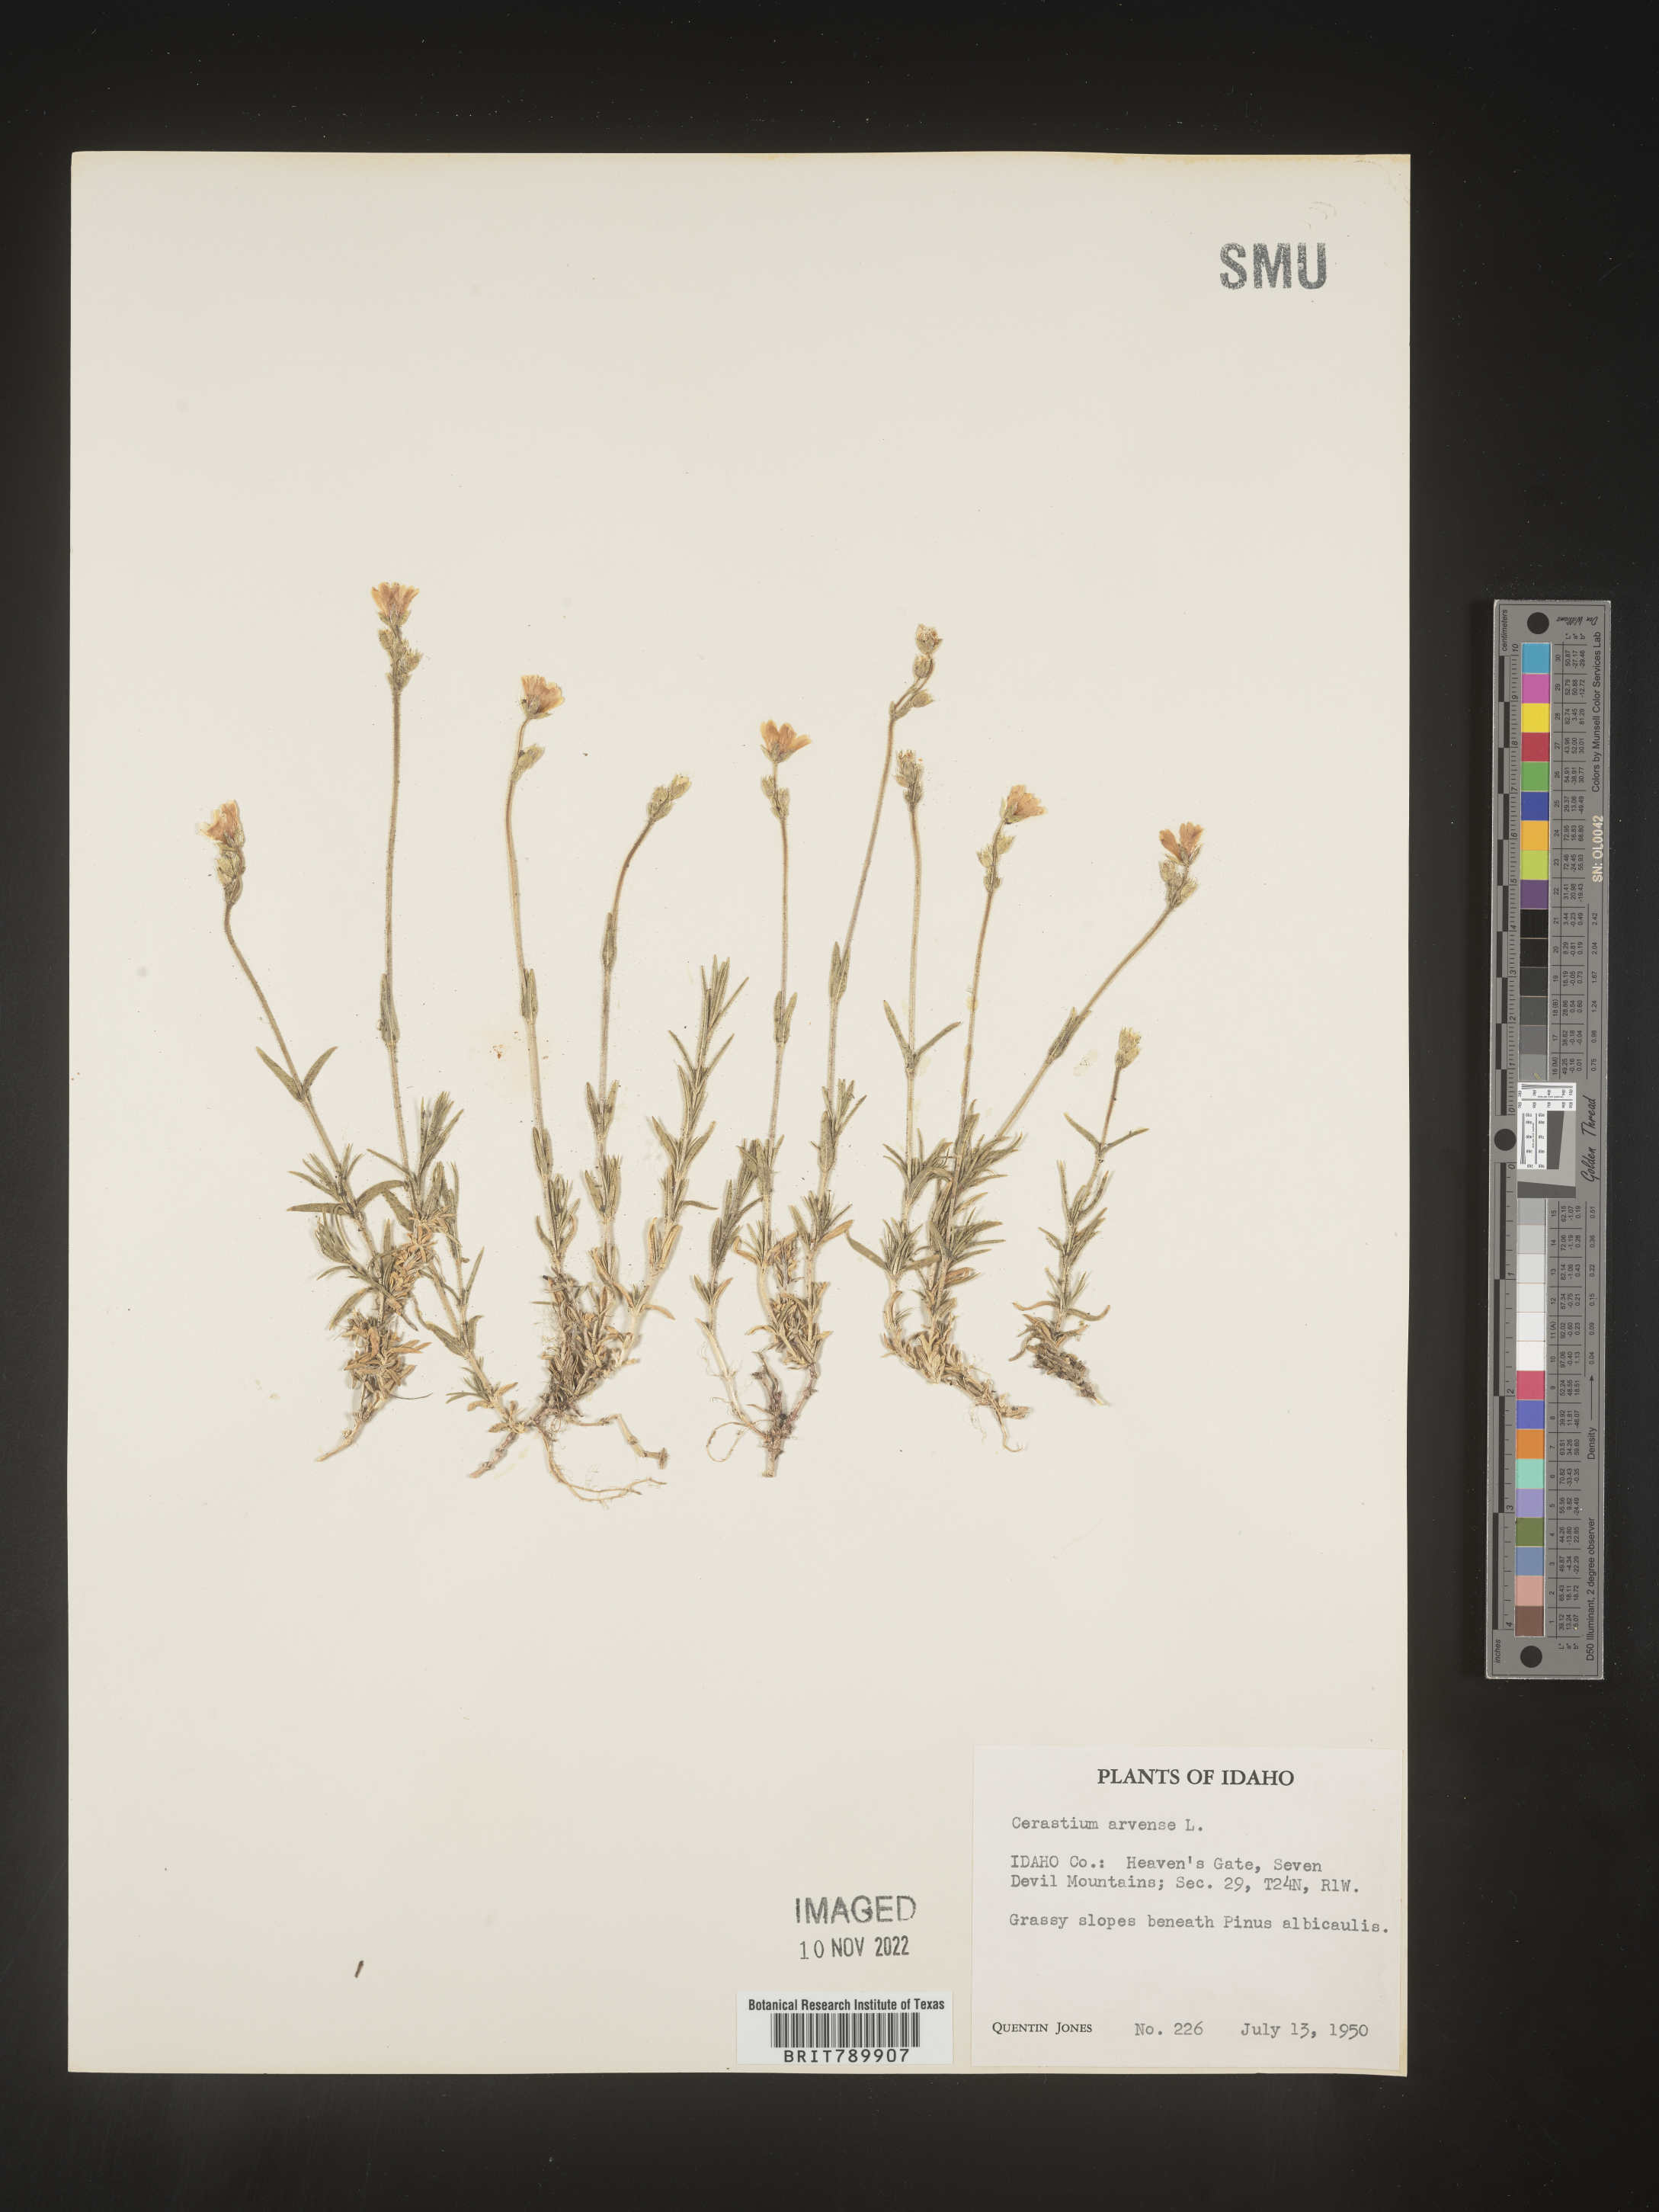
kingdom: Plantae
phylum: Tracheophyta
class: Magnoliopsida
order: Caryophyllales
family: Caryophyllaceae
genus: Cerastium
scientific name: Cerastium arvense
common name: Field mouse-ear
